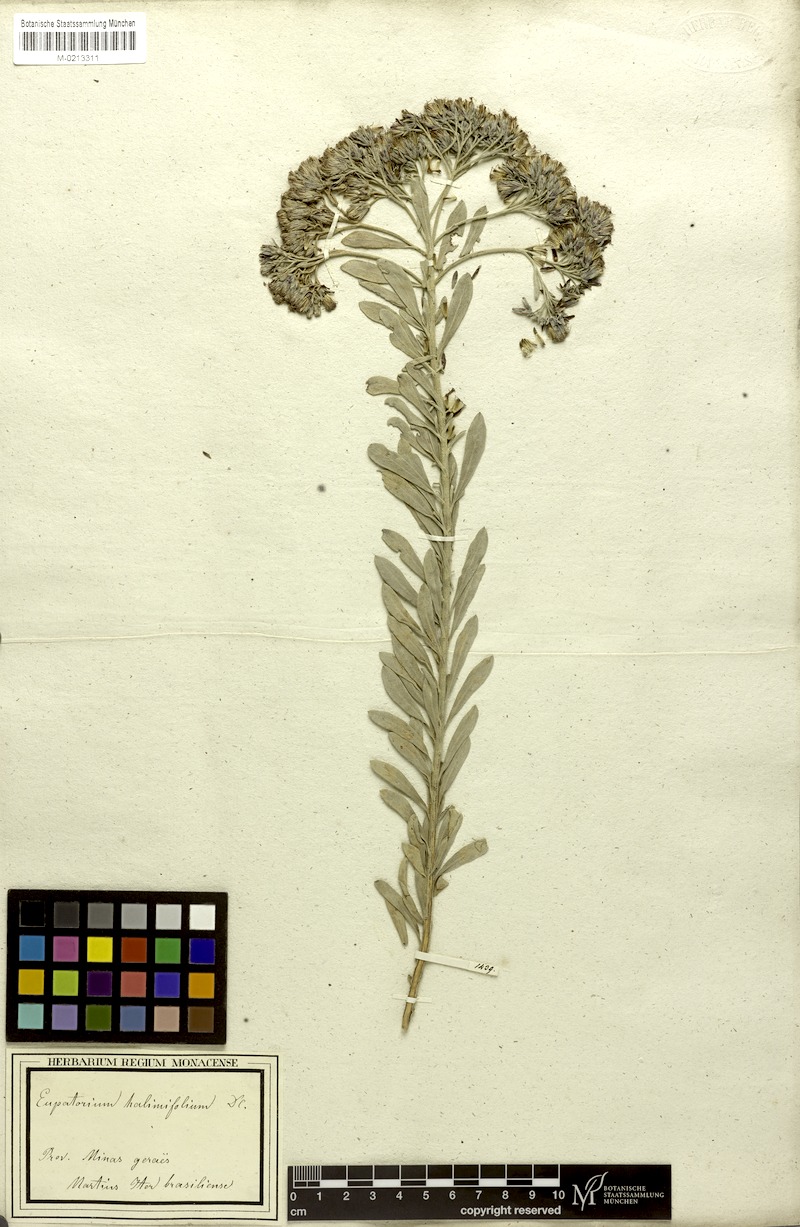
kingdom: Plantae
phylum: Tracheophyta
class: Magnoliopsida
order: Asterales
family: Asteraceae
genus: Disynaphia
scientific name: Disynaphia spathulata
